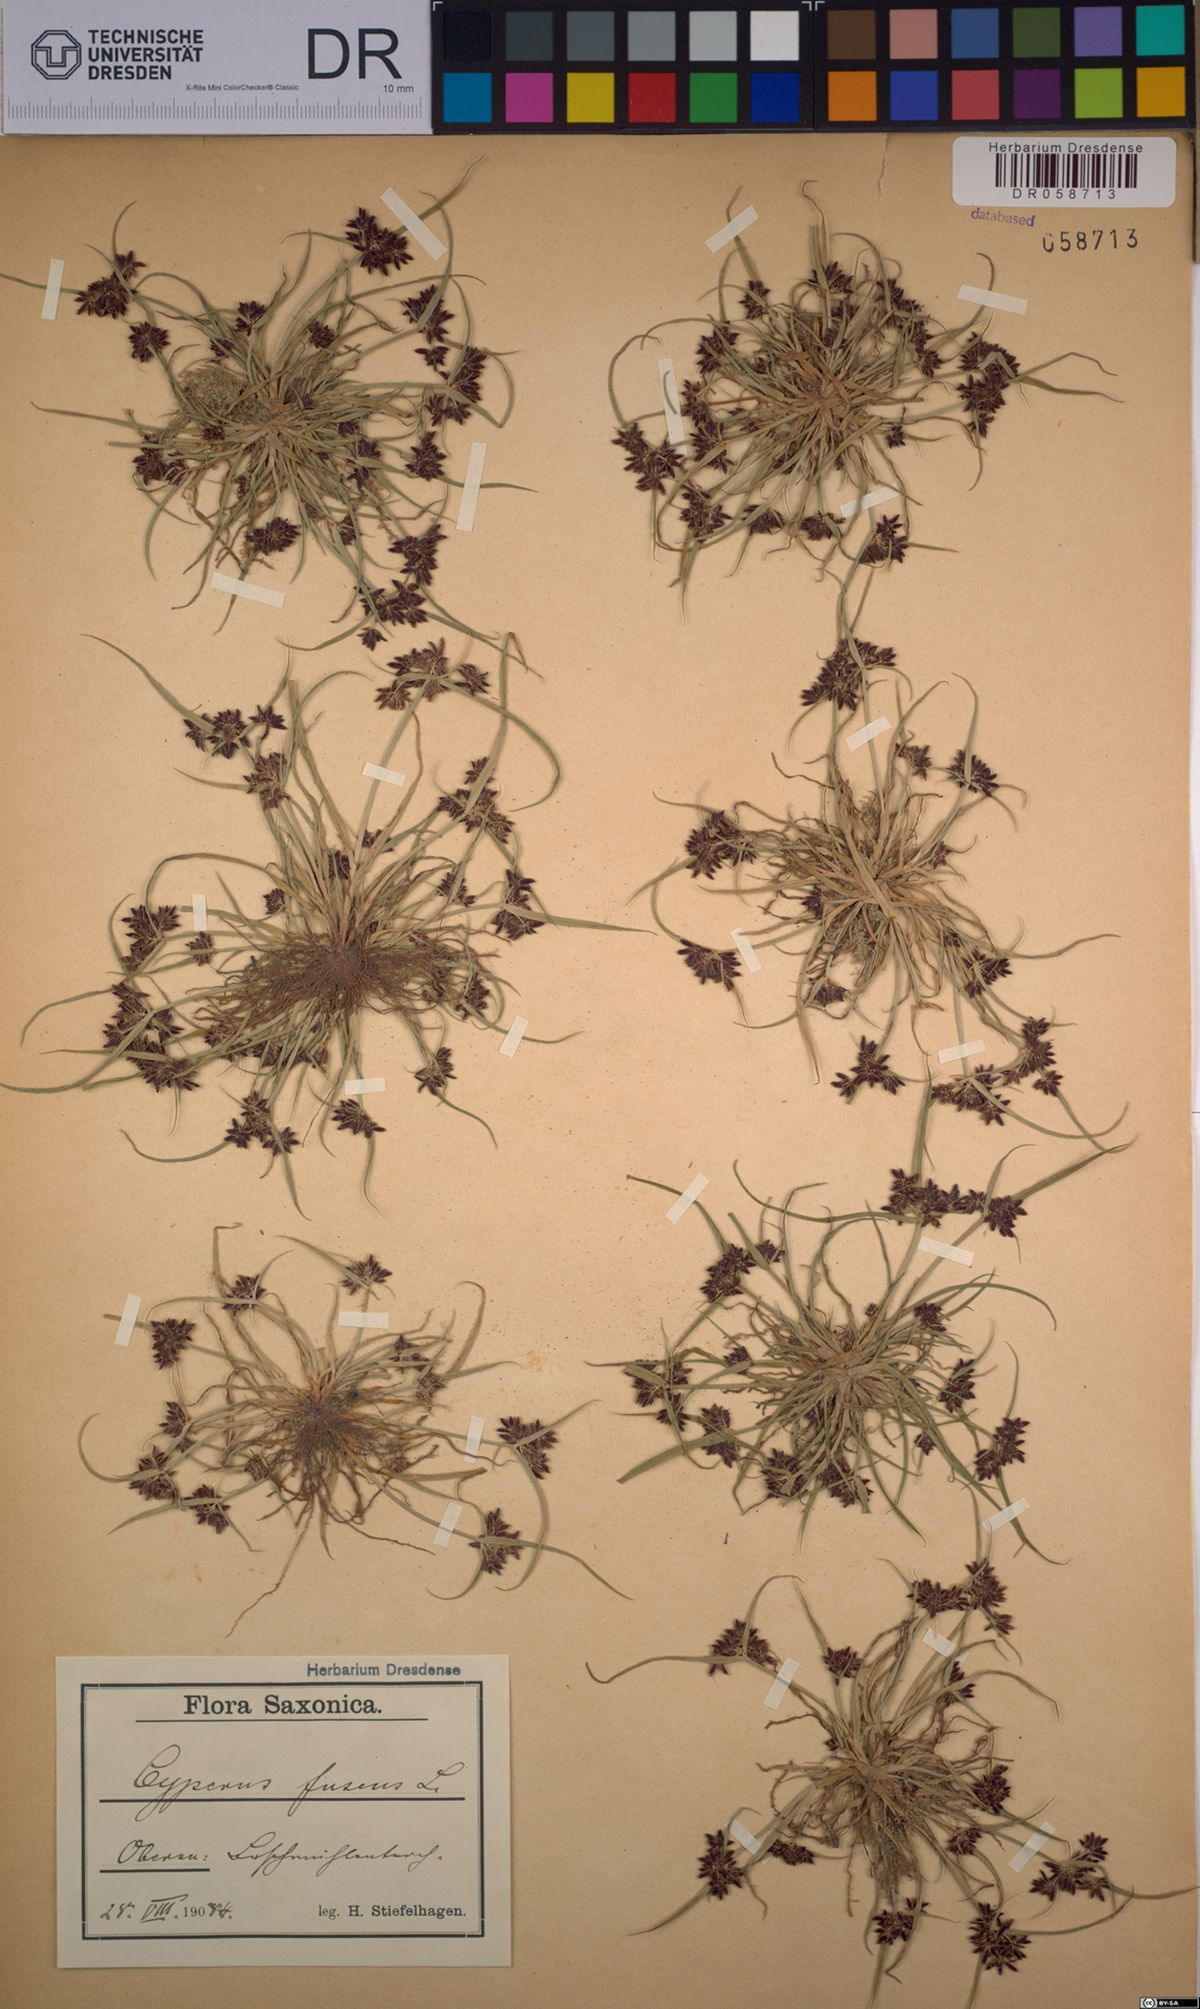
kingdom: Plantae
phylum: Tracheophyta
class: Liliopsida
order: Poales
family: Cyperaceae
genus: Cyperus
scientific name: Cyperus fuscus
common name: Brown galingale
